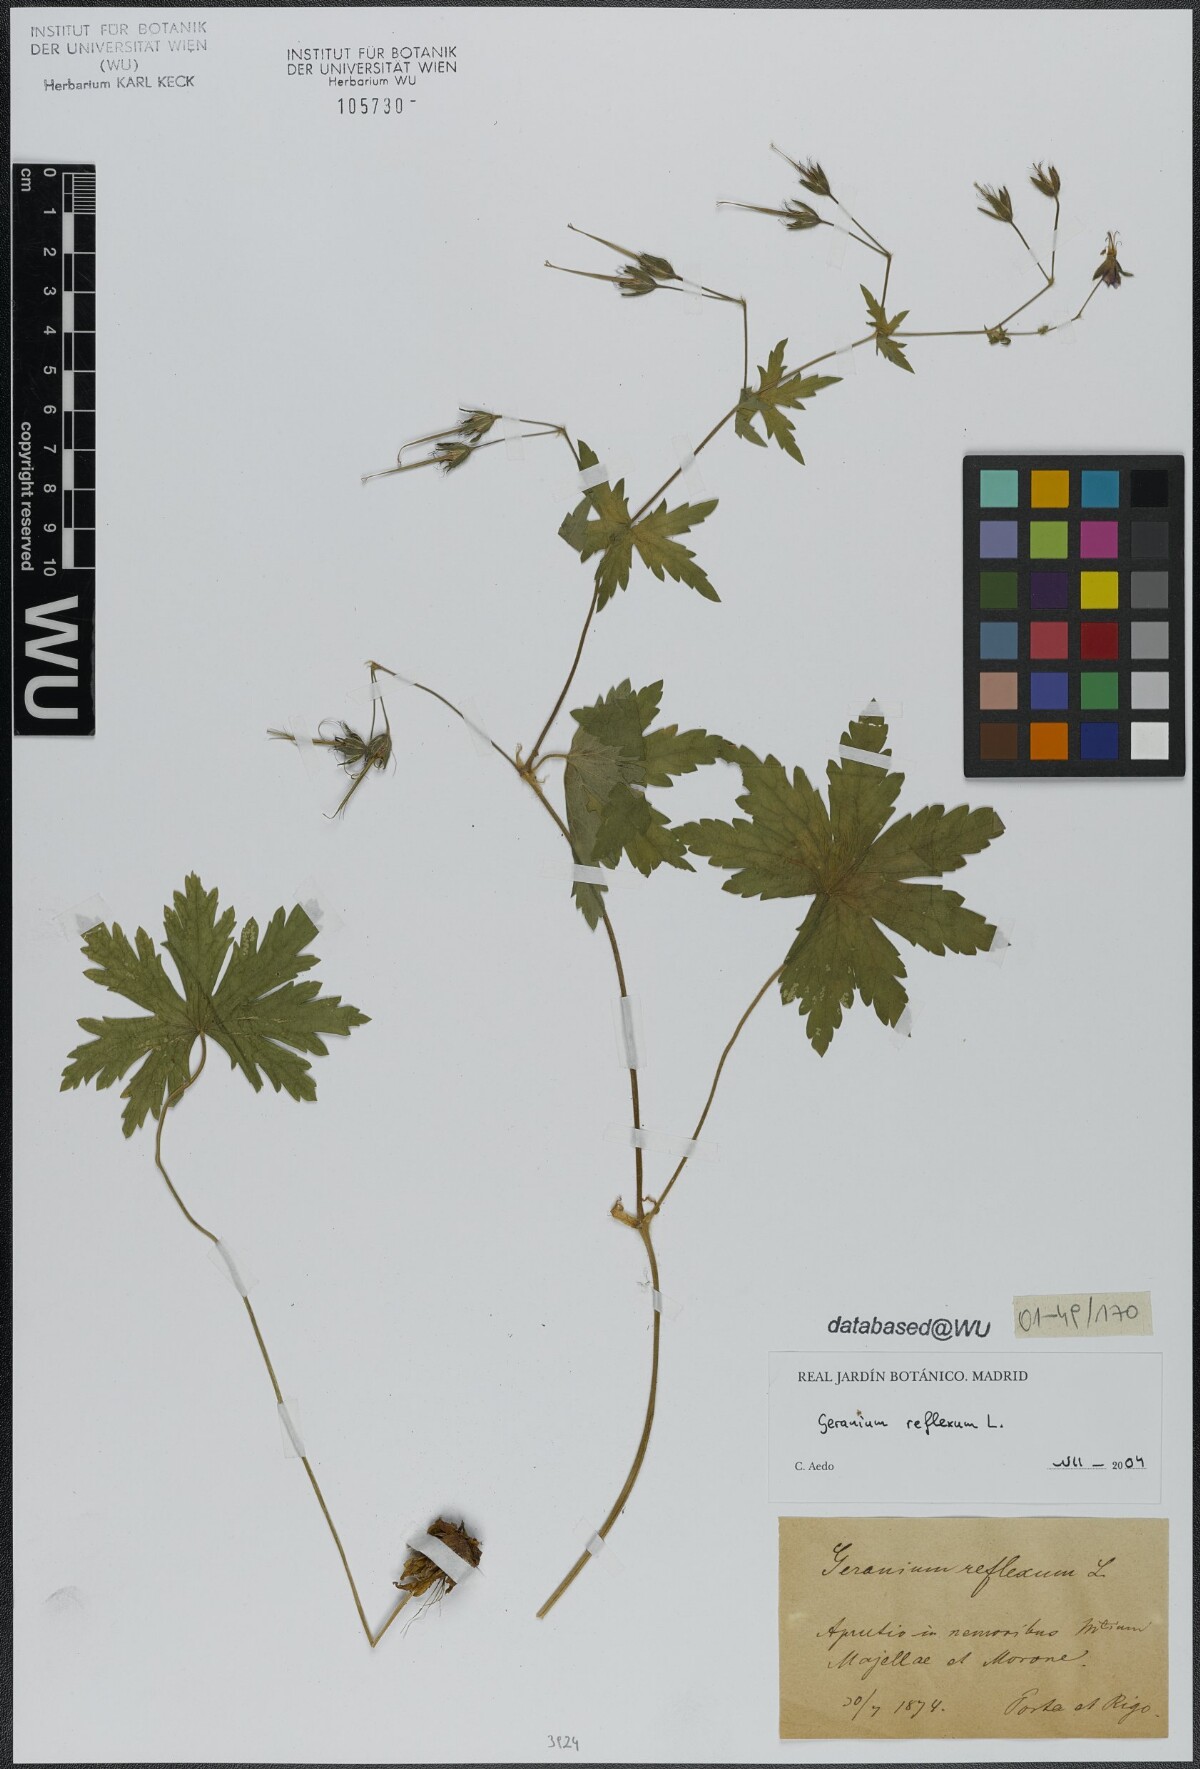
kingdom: Plantae
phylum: Tracheophyta
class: Magnoliopsida
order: Geraniales
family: Geraniaceae
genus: Geranium
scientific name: Geranium reflexum
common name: Reflexed crane's-bill
